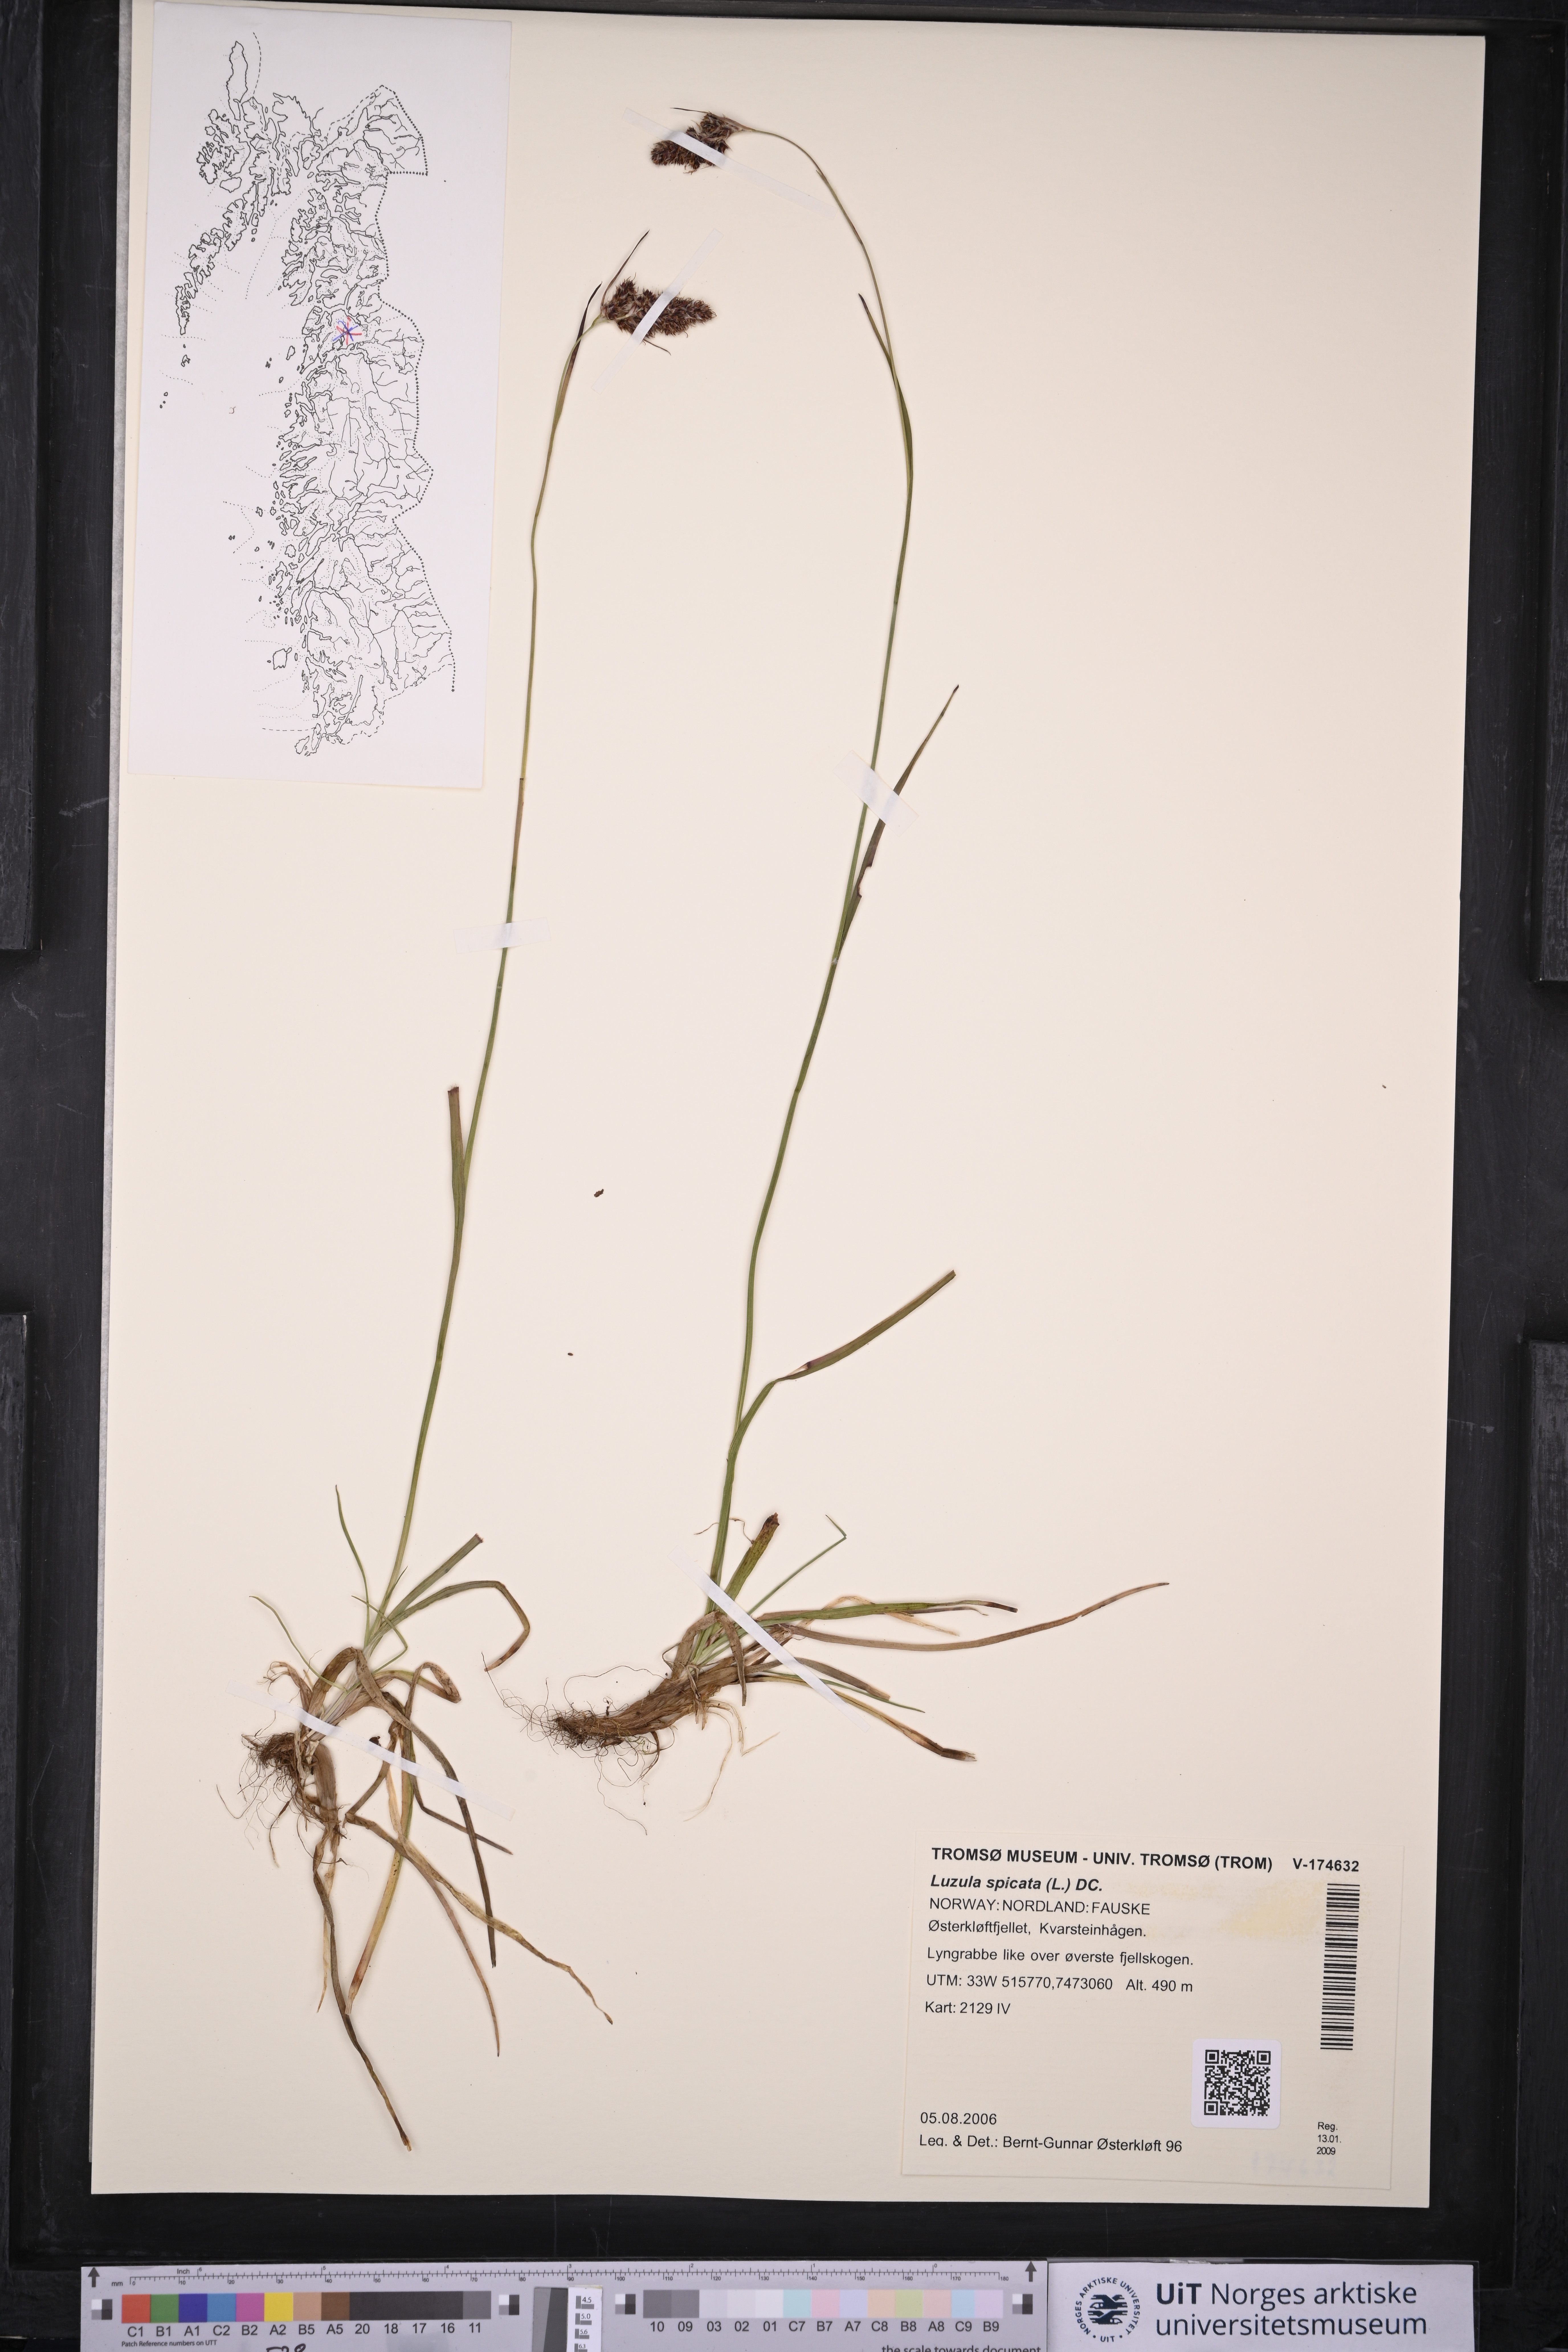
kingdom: Plantae
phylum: Tracheophyta
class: Liliopsida
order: Poales
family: Juncaceae
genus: Luzula
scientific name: Luzula spicata
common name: Spiked wood-rush
